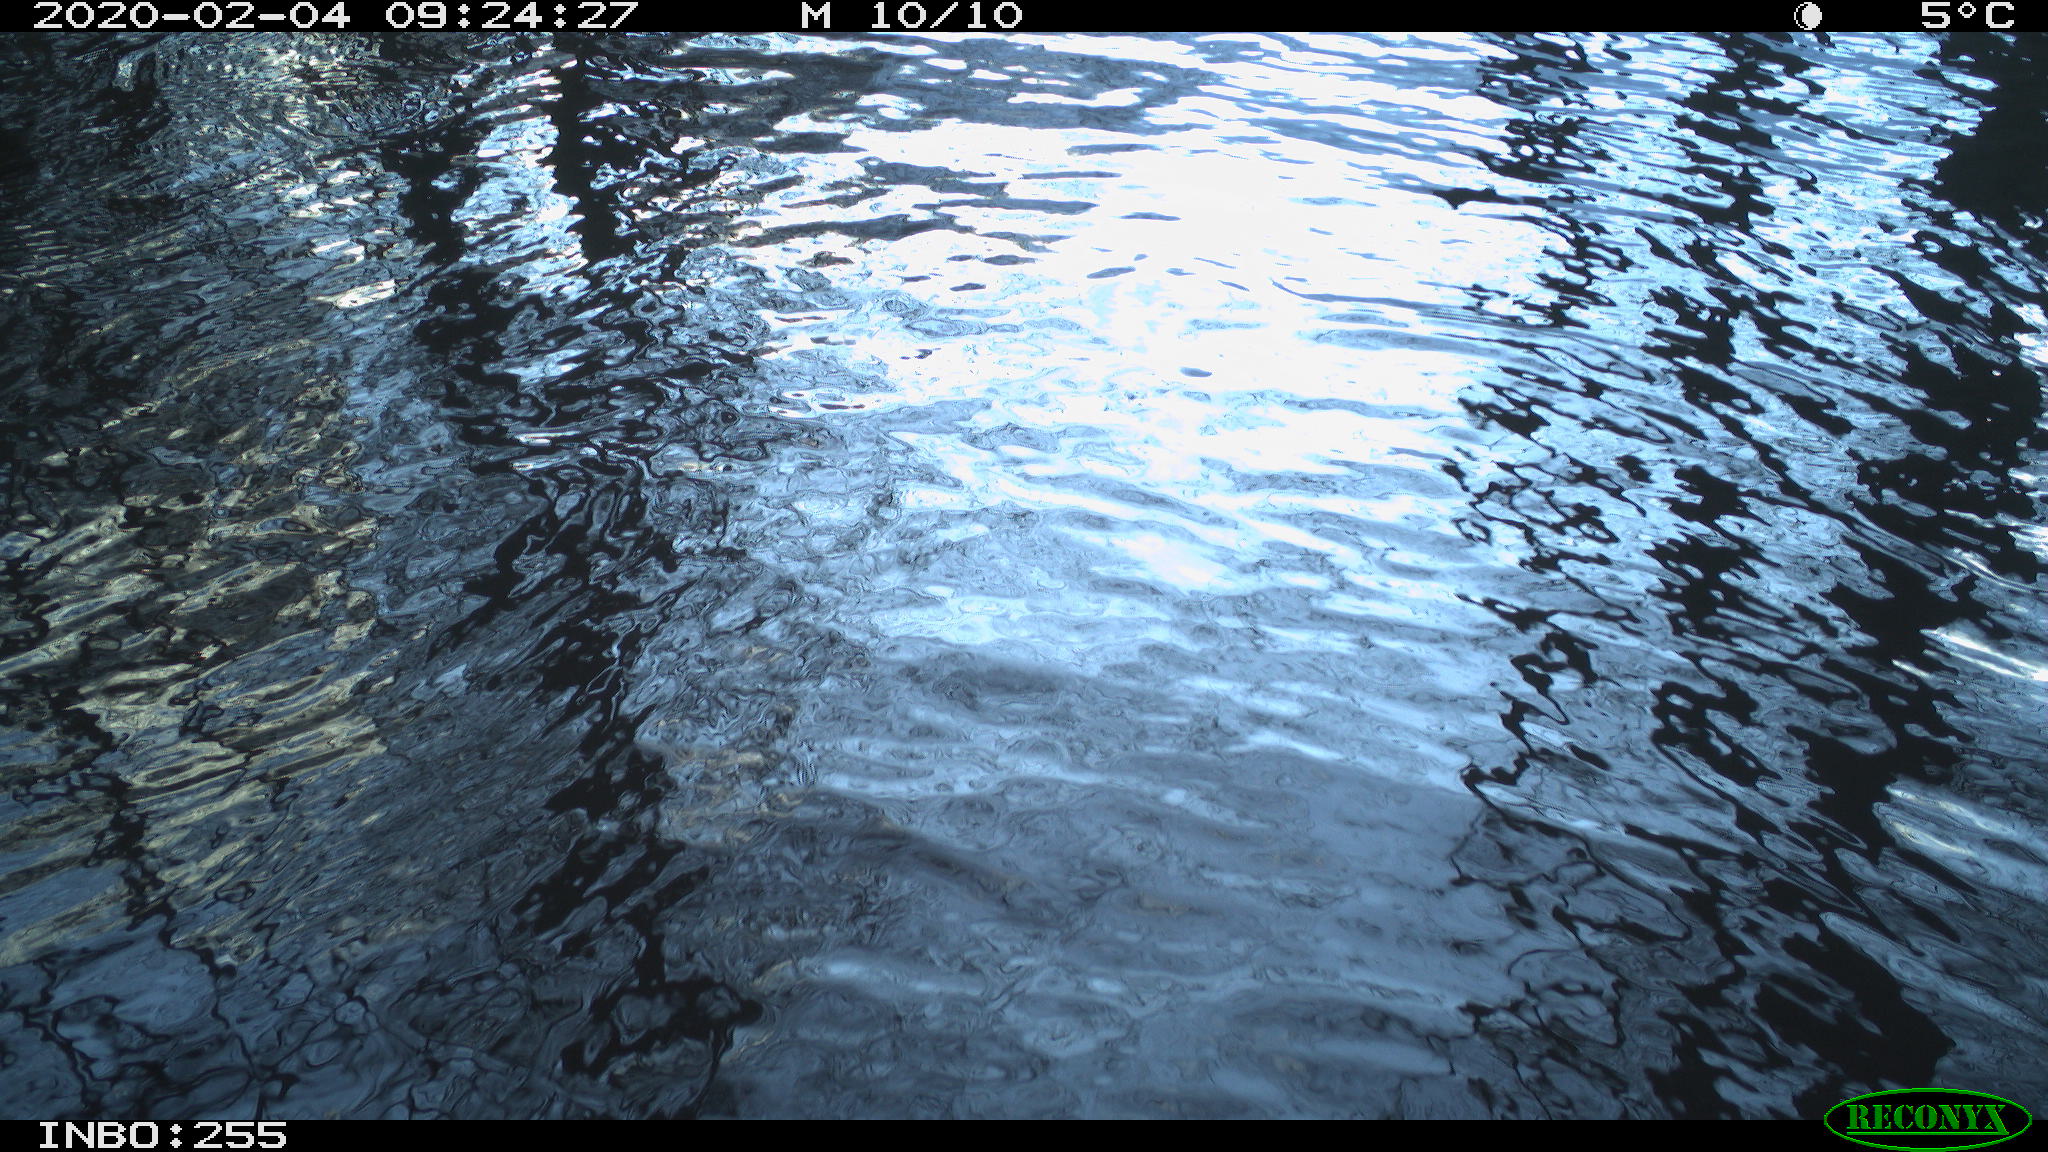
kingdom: Animalia
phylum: Chordata
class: Aves
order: Gruiformes
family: Rallidae
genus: Fulica
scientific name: Fulica atra
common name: Eurasian coot
